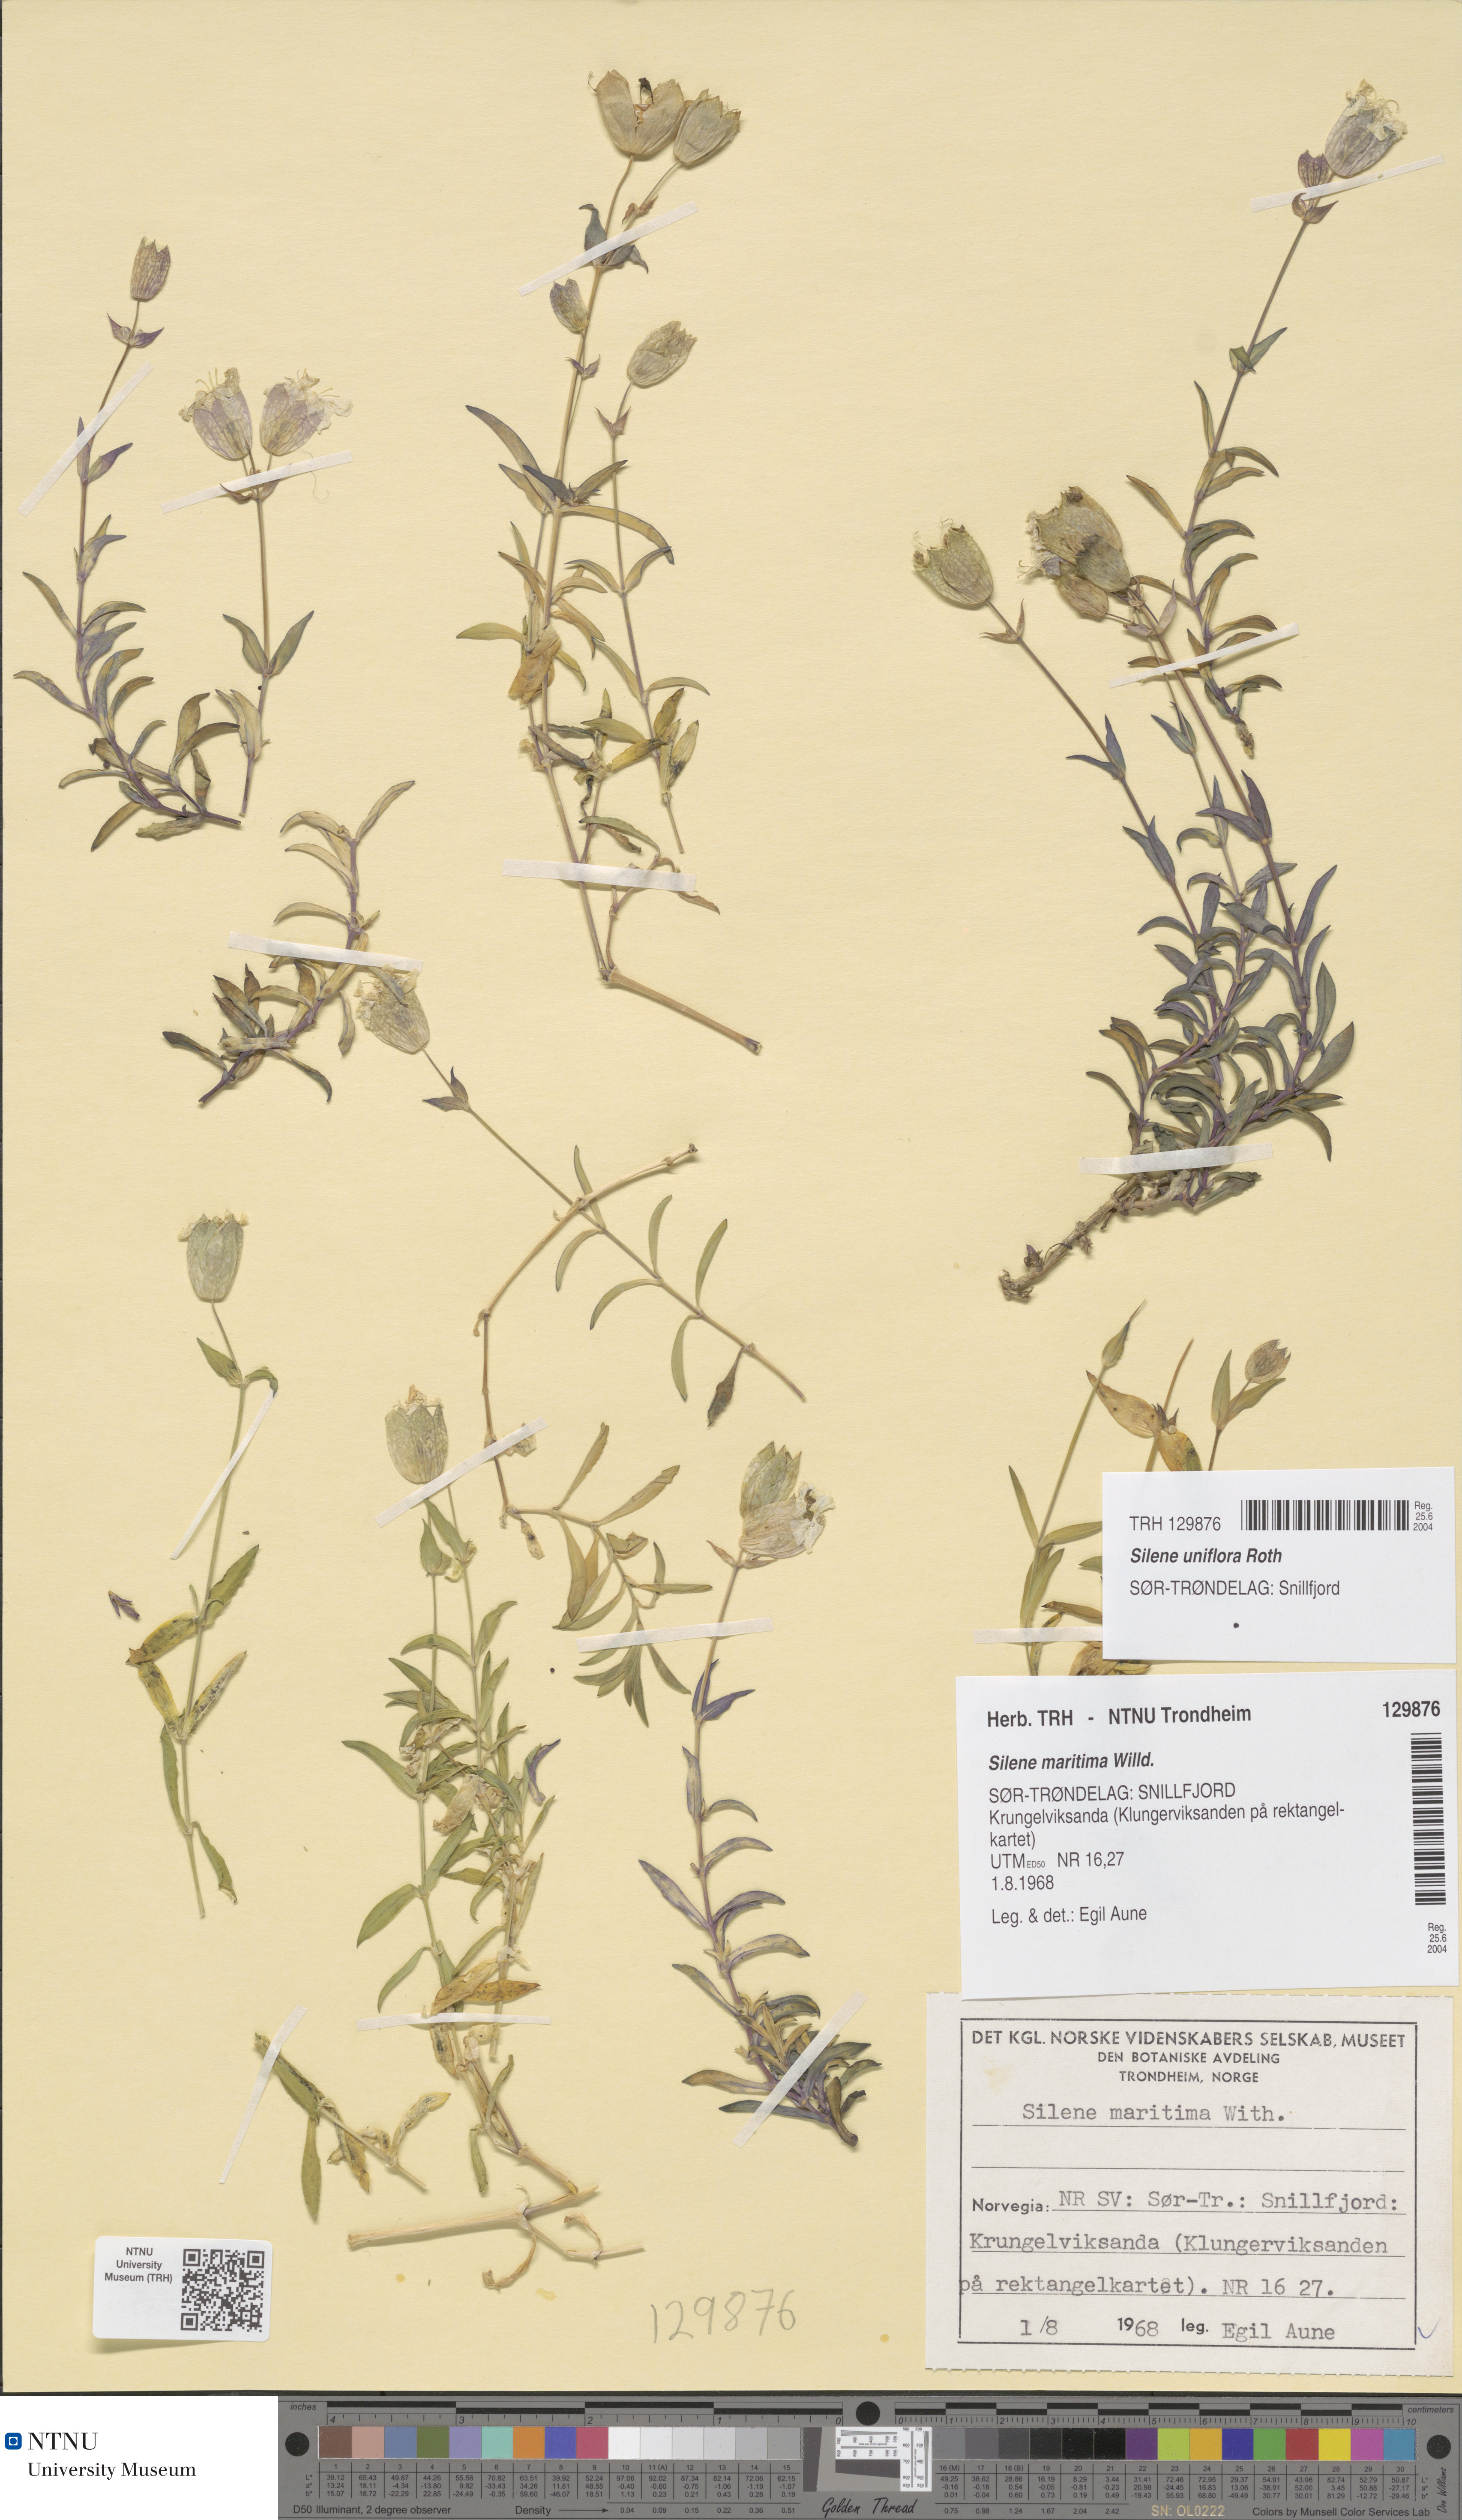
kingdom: Plantae
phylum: Tracheophyta
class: Magnoliopsida
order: Caryophyllales
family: Caryophyllaceae
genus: Silene
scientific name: Silene uniflora
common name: Sea campion
